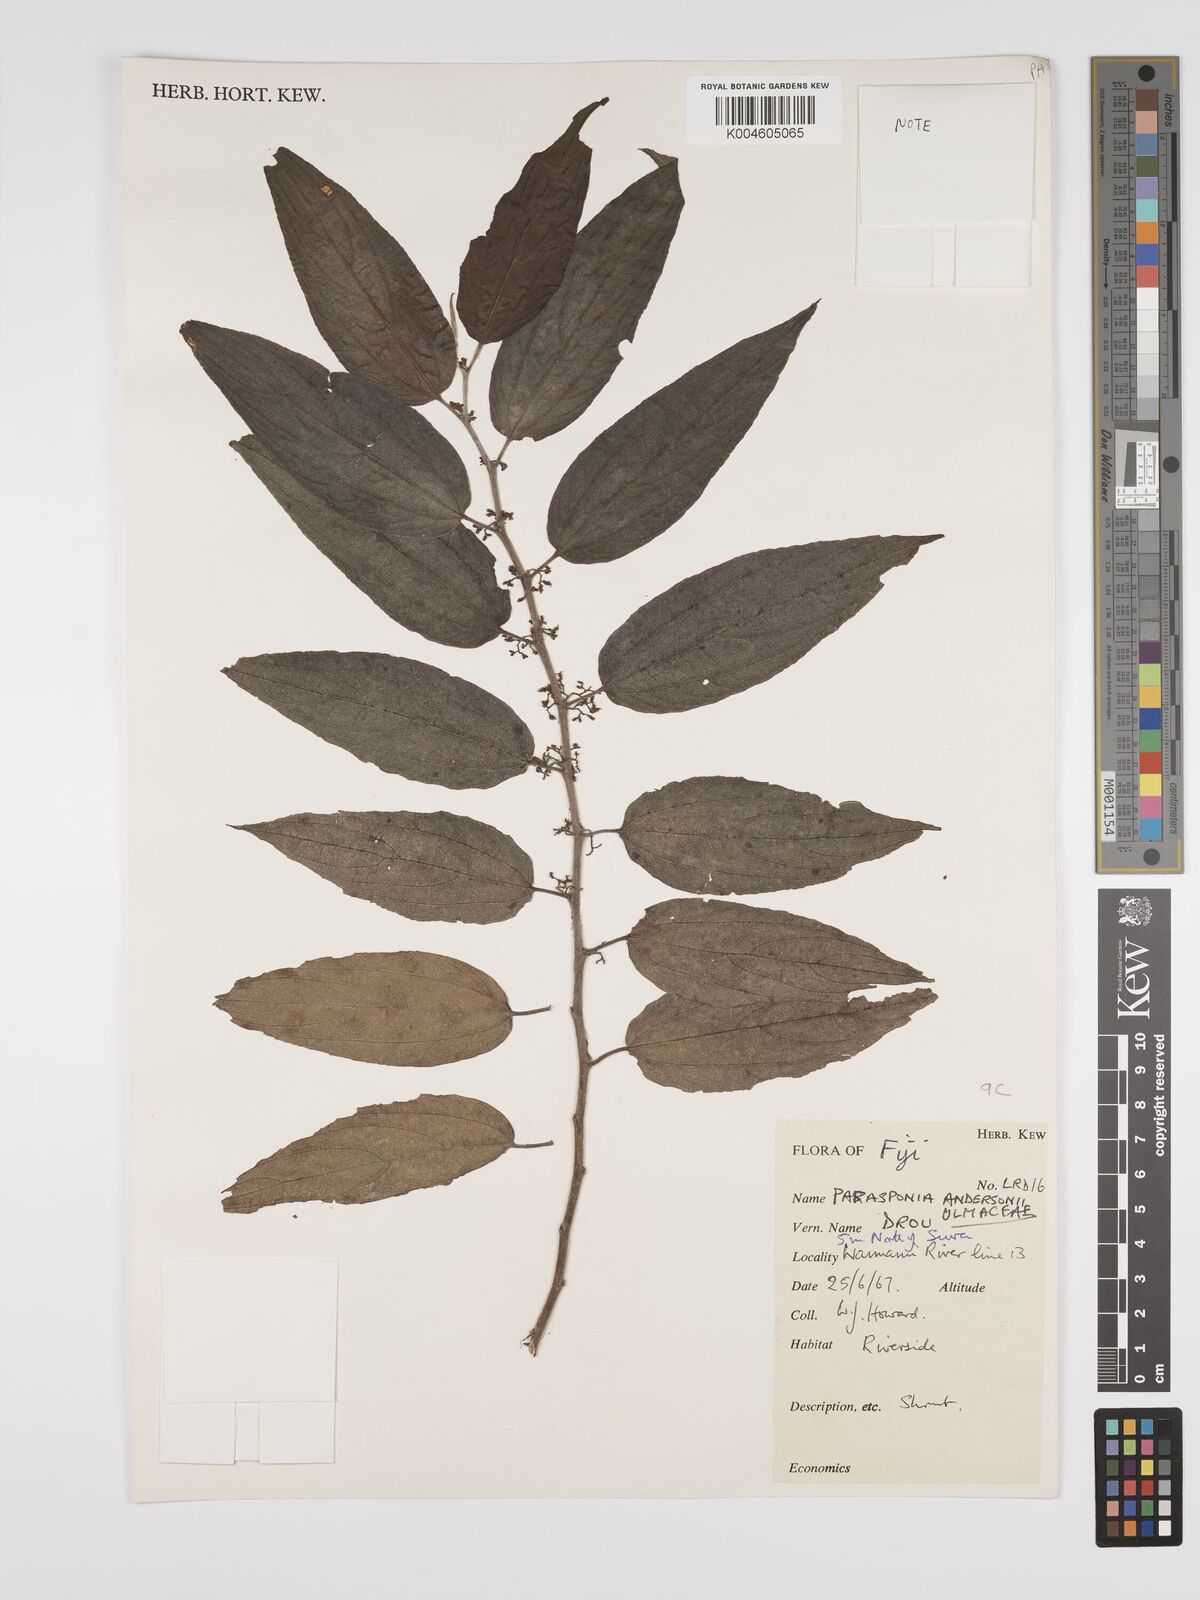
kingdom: Plantae
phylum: Tracheophyta
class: Magnoliopsida
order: Rosales
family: Cannabaceae
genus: Trema
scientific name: Trema andersonii
